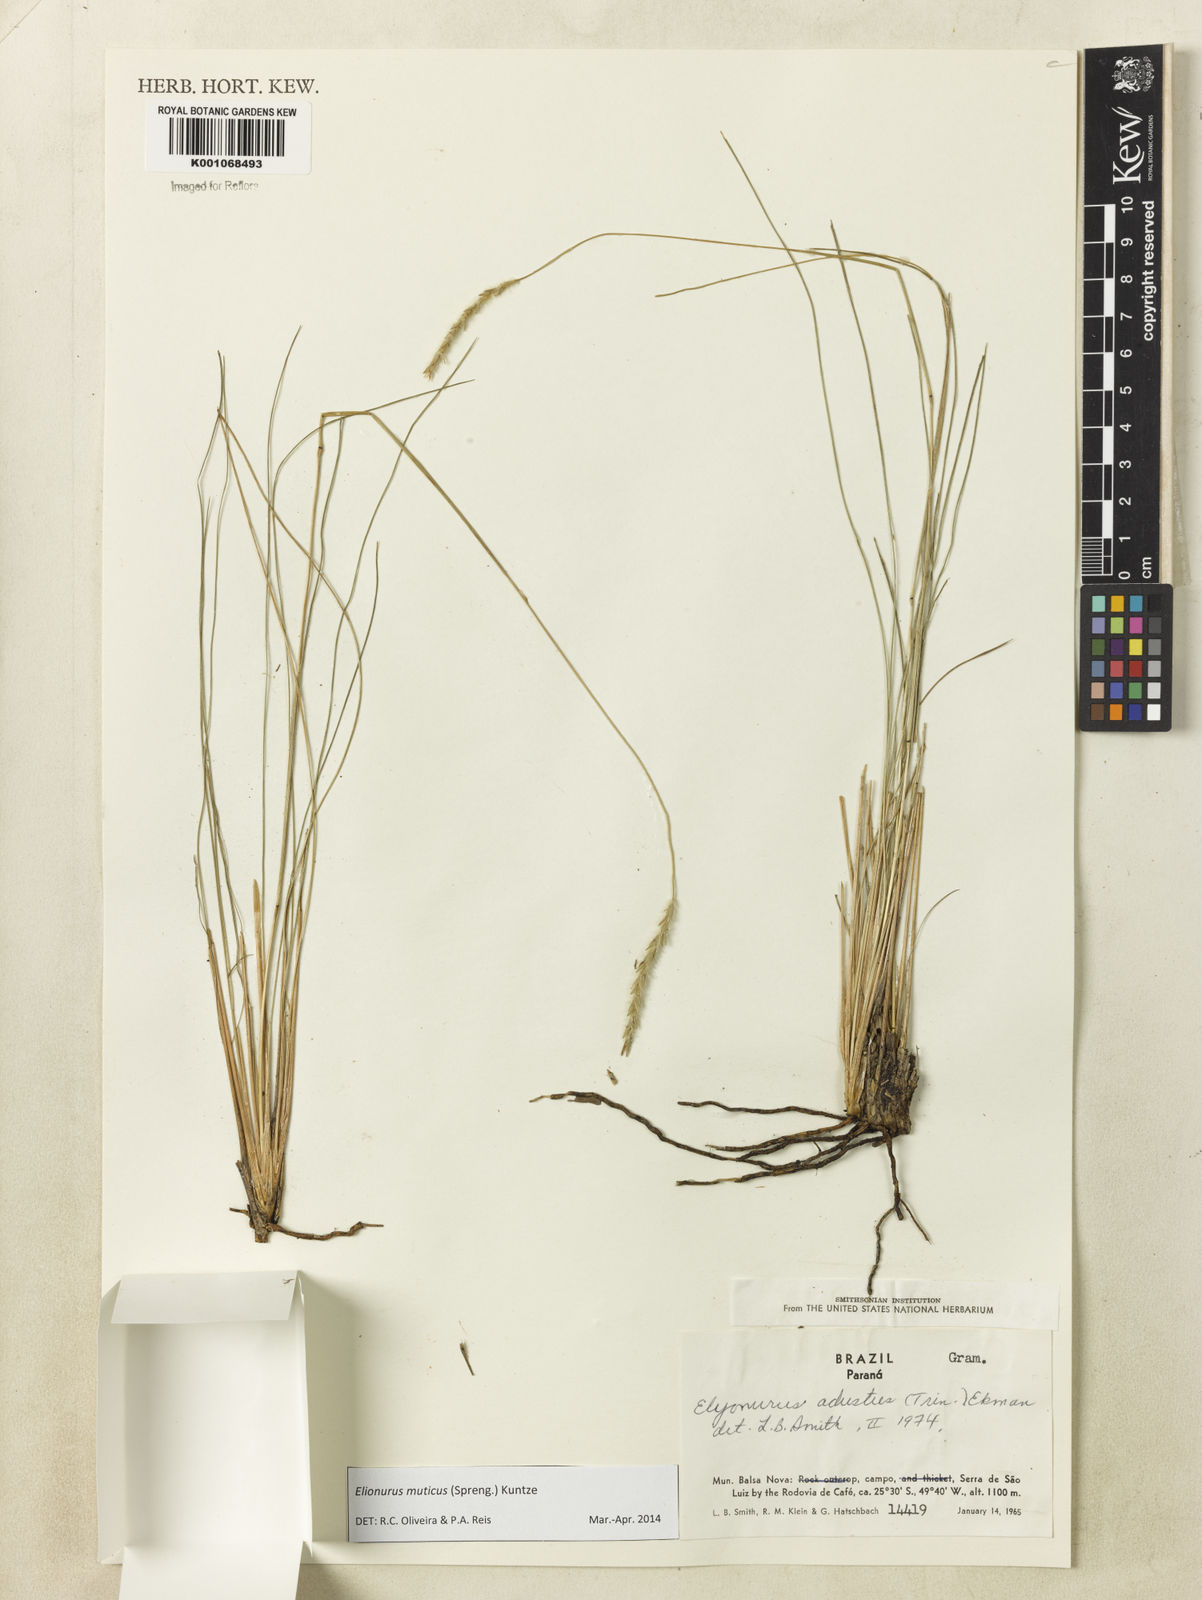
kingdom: Plantae
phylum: Tracheophyta
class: Liliopsida
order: Poales
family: Poaceae
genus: Elionurus
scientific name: Elionurus muticus
